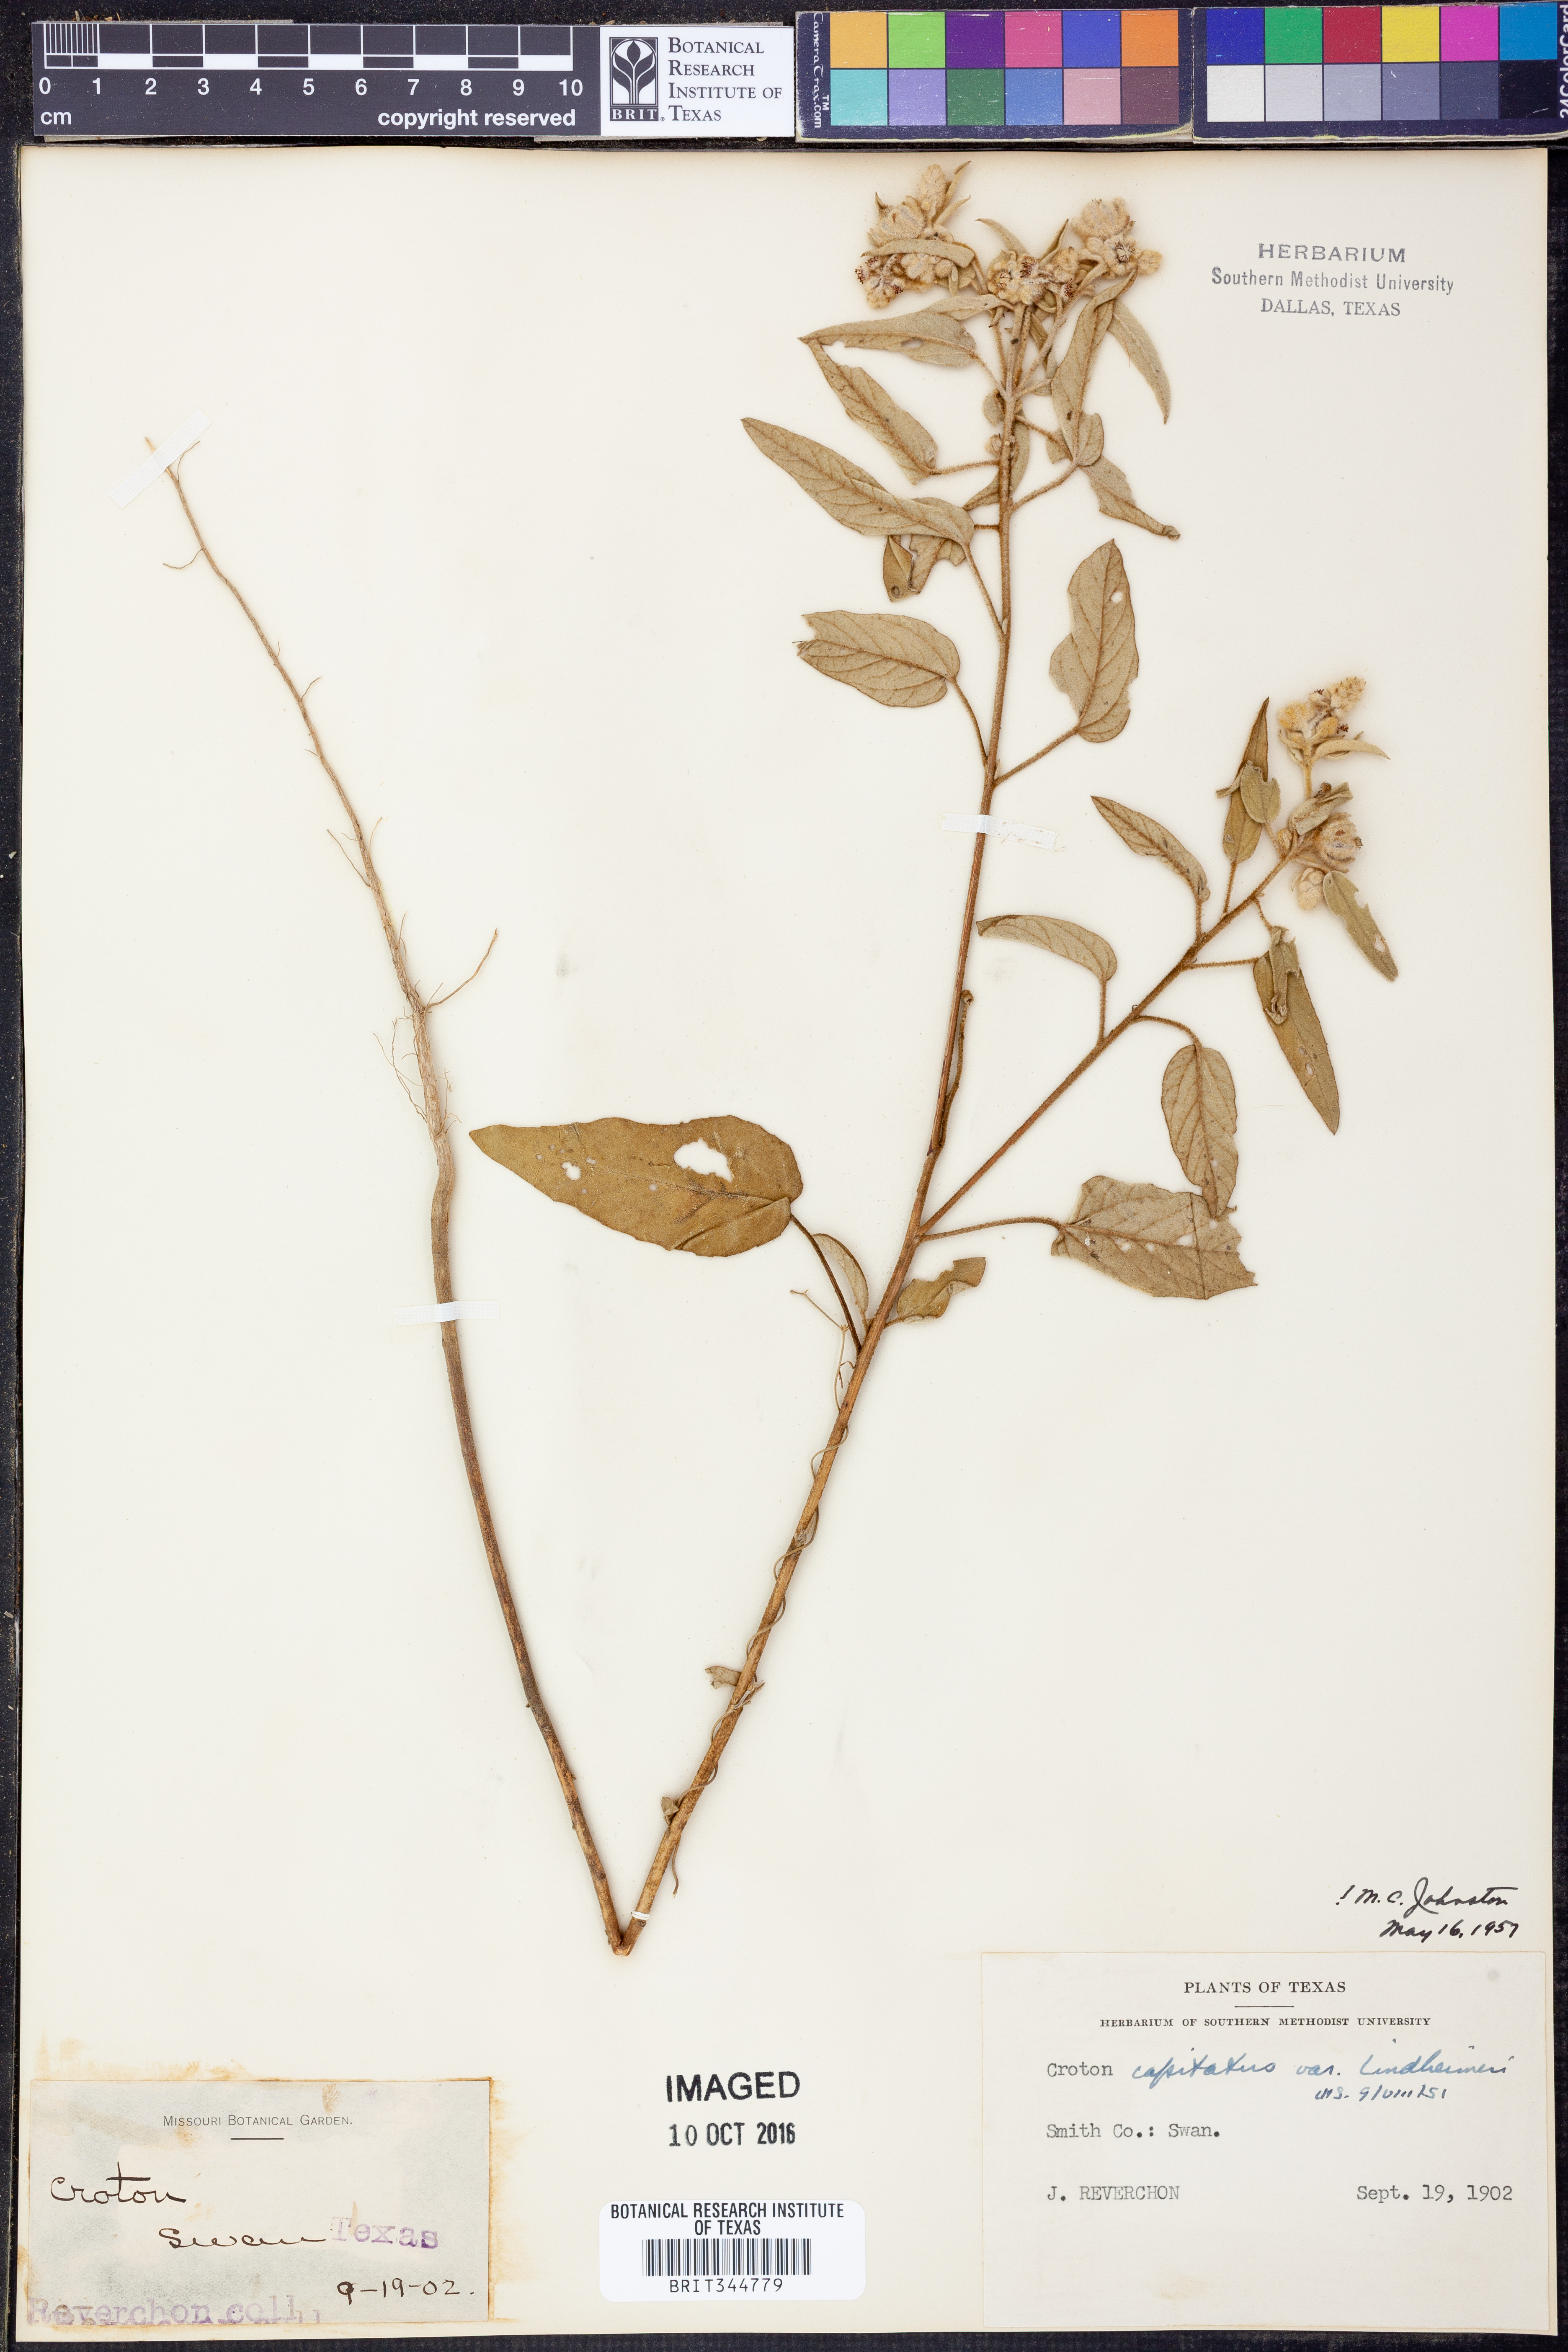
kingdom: Plantae
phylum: Tracheophyta
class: Magnoliopsida
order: Malpighiales
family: Euphorbiaceae
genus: Croton
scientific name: Croton lindheimeri
